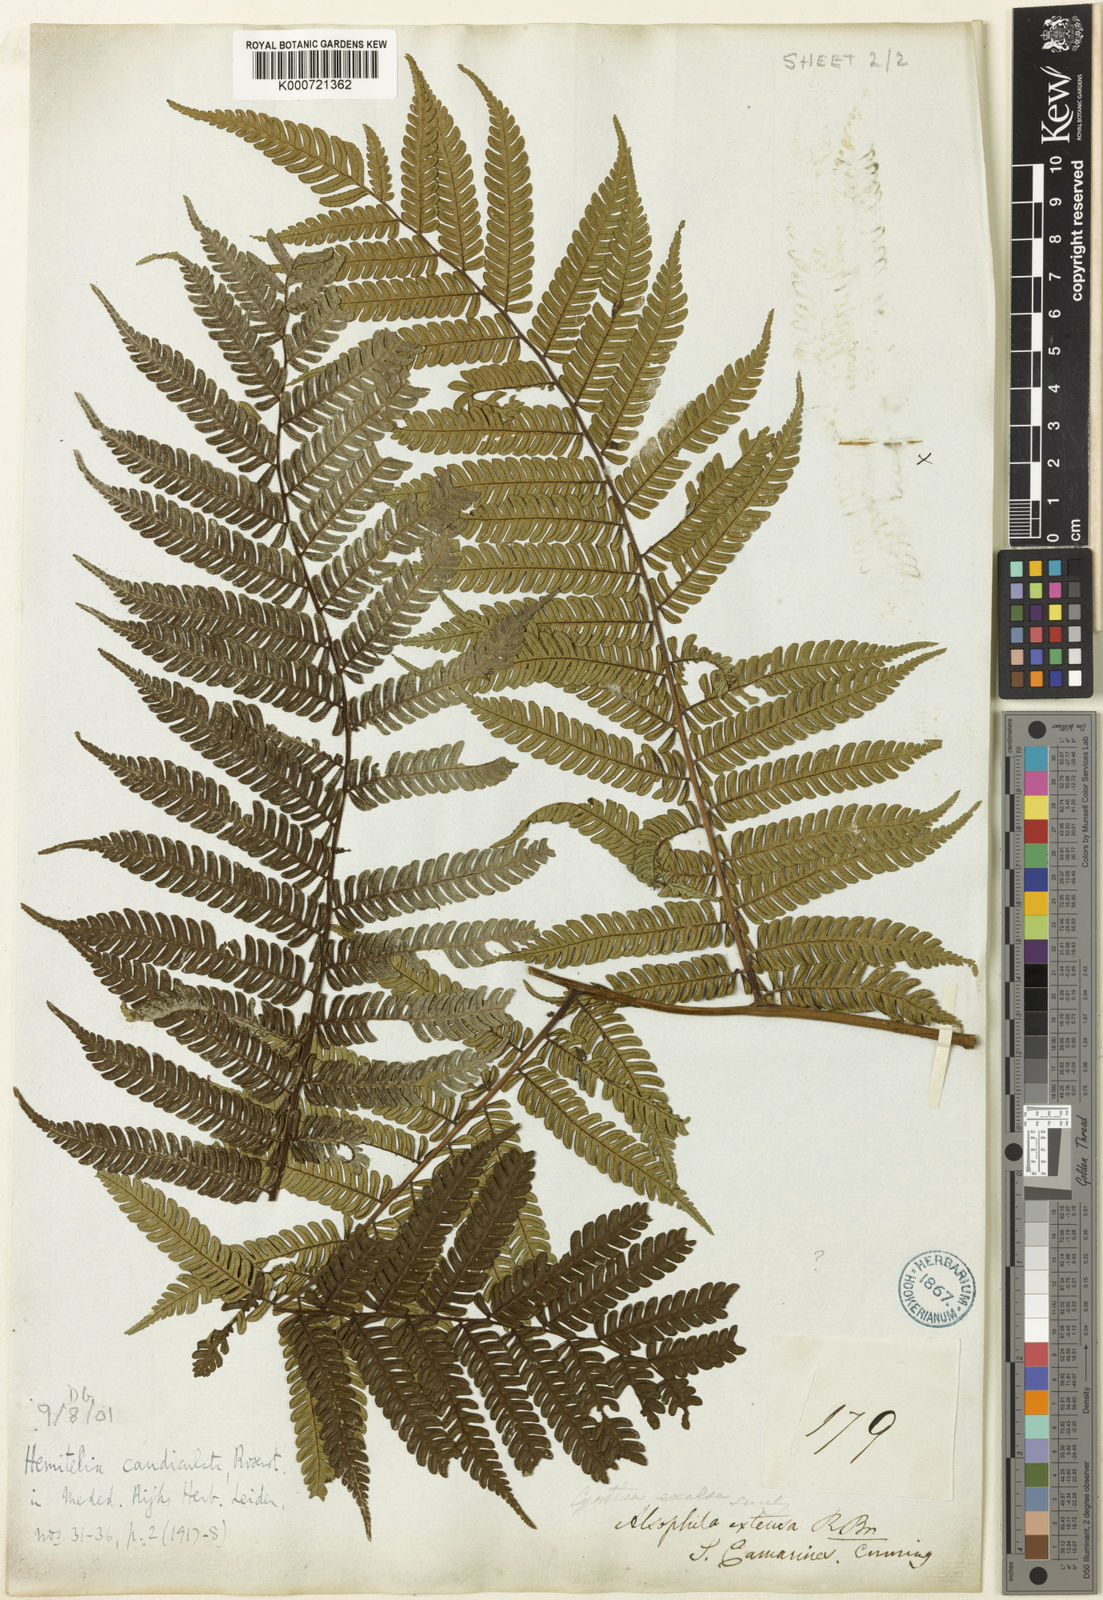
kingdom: Plantae
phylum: Tracheophyta
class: Polypodiopsida
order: Cyatheales
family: Cyatheaceae
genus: Alsophila
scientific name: Alsophila heterochlamydea
